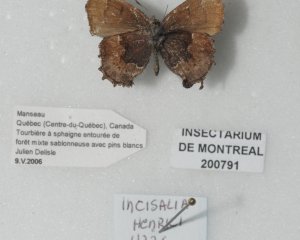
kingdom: Animalia
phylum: Arthropoda
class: Insecta
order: Lepidoptera
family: Lycaenidae
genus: Incisalia
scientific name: Incisalia henrici
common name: Henry's Elfin
